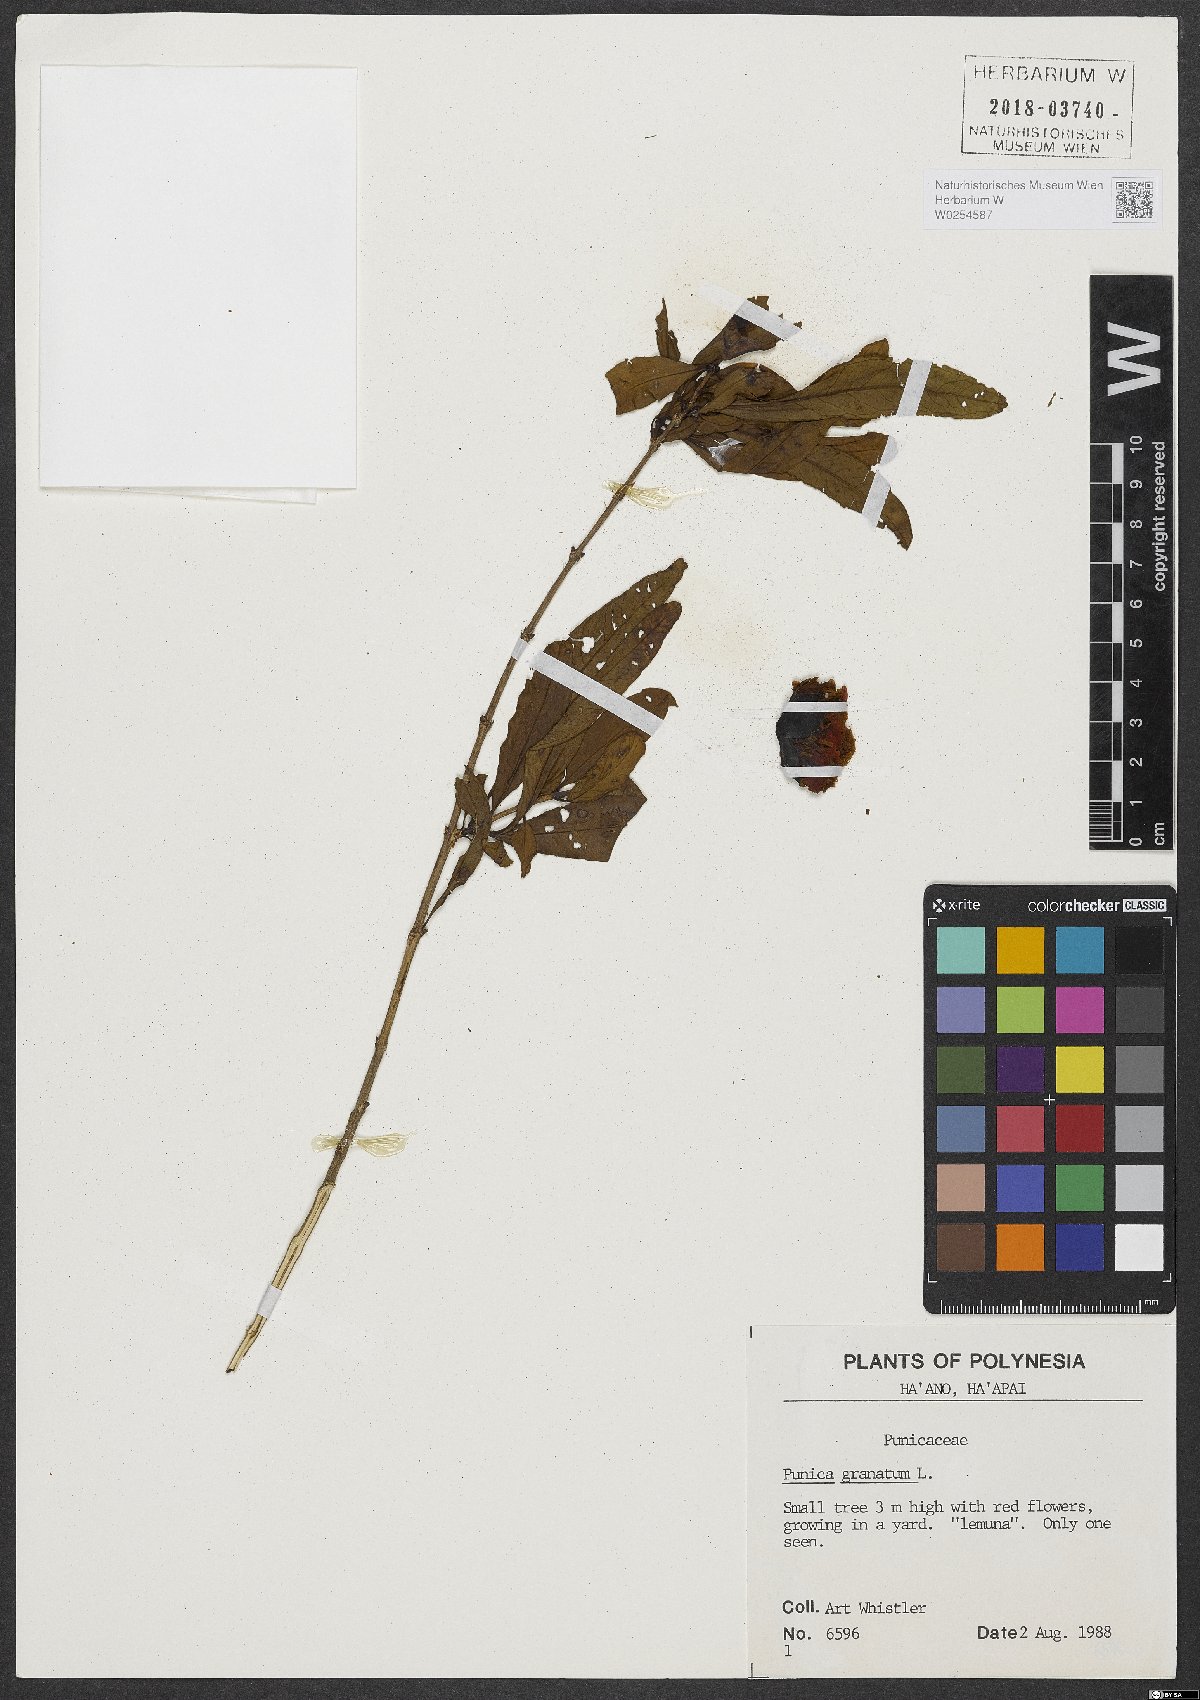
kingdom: Plantae
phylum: Tracheophyta
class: Magnoliopsida
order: Myrtales
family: Lythraceae
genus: Punica
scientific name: Punica granatum
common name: Pomegranate
